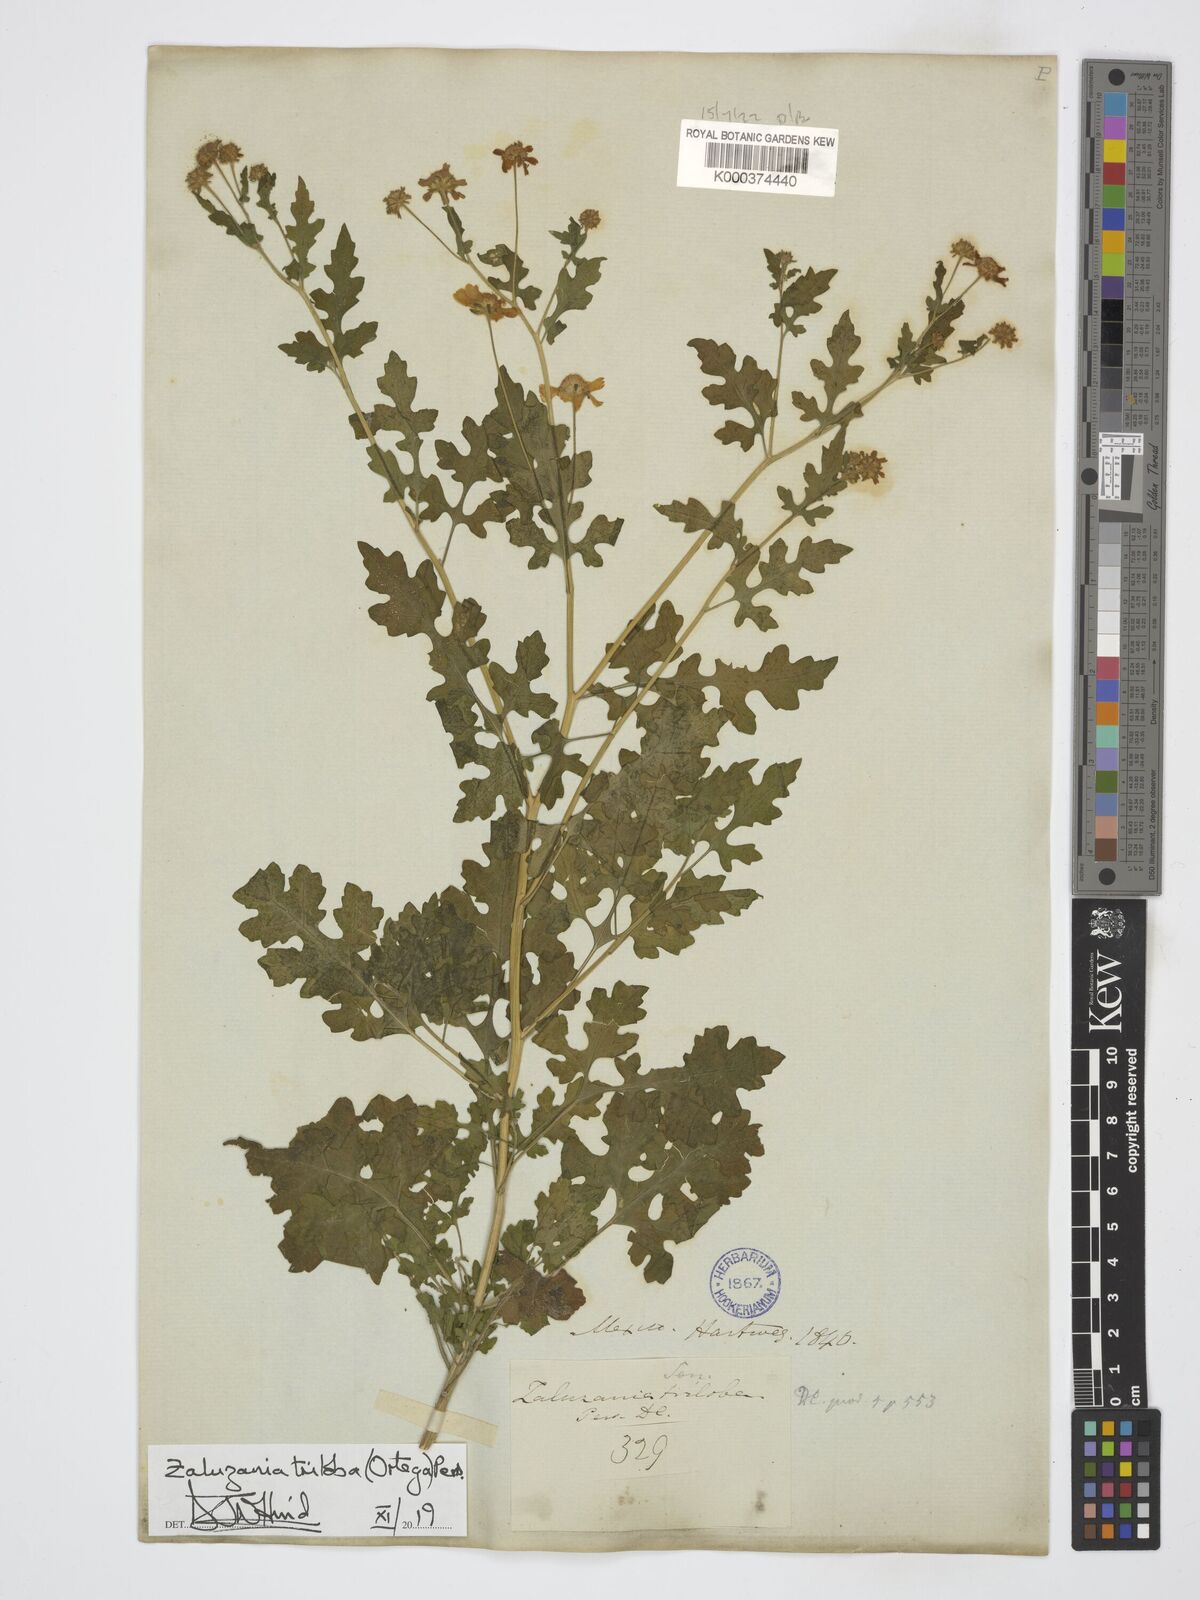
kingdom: Plantae
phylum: Tracheophyta
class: Magnoliopsida
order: Asterales
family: Asteraceae
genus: Zaluzania
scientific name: Zaluzania triloba
